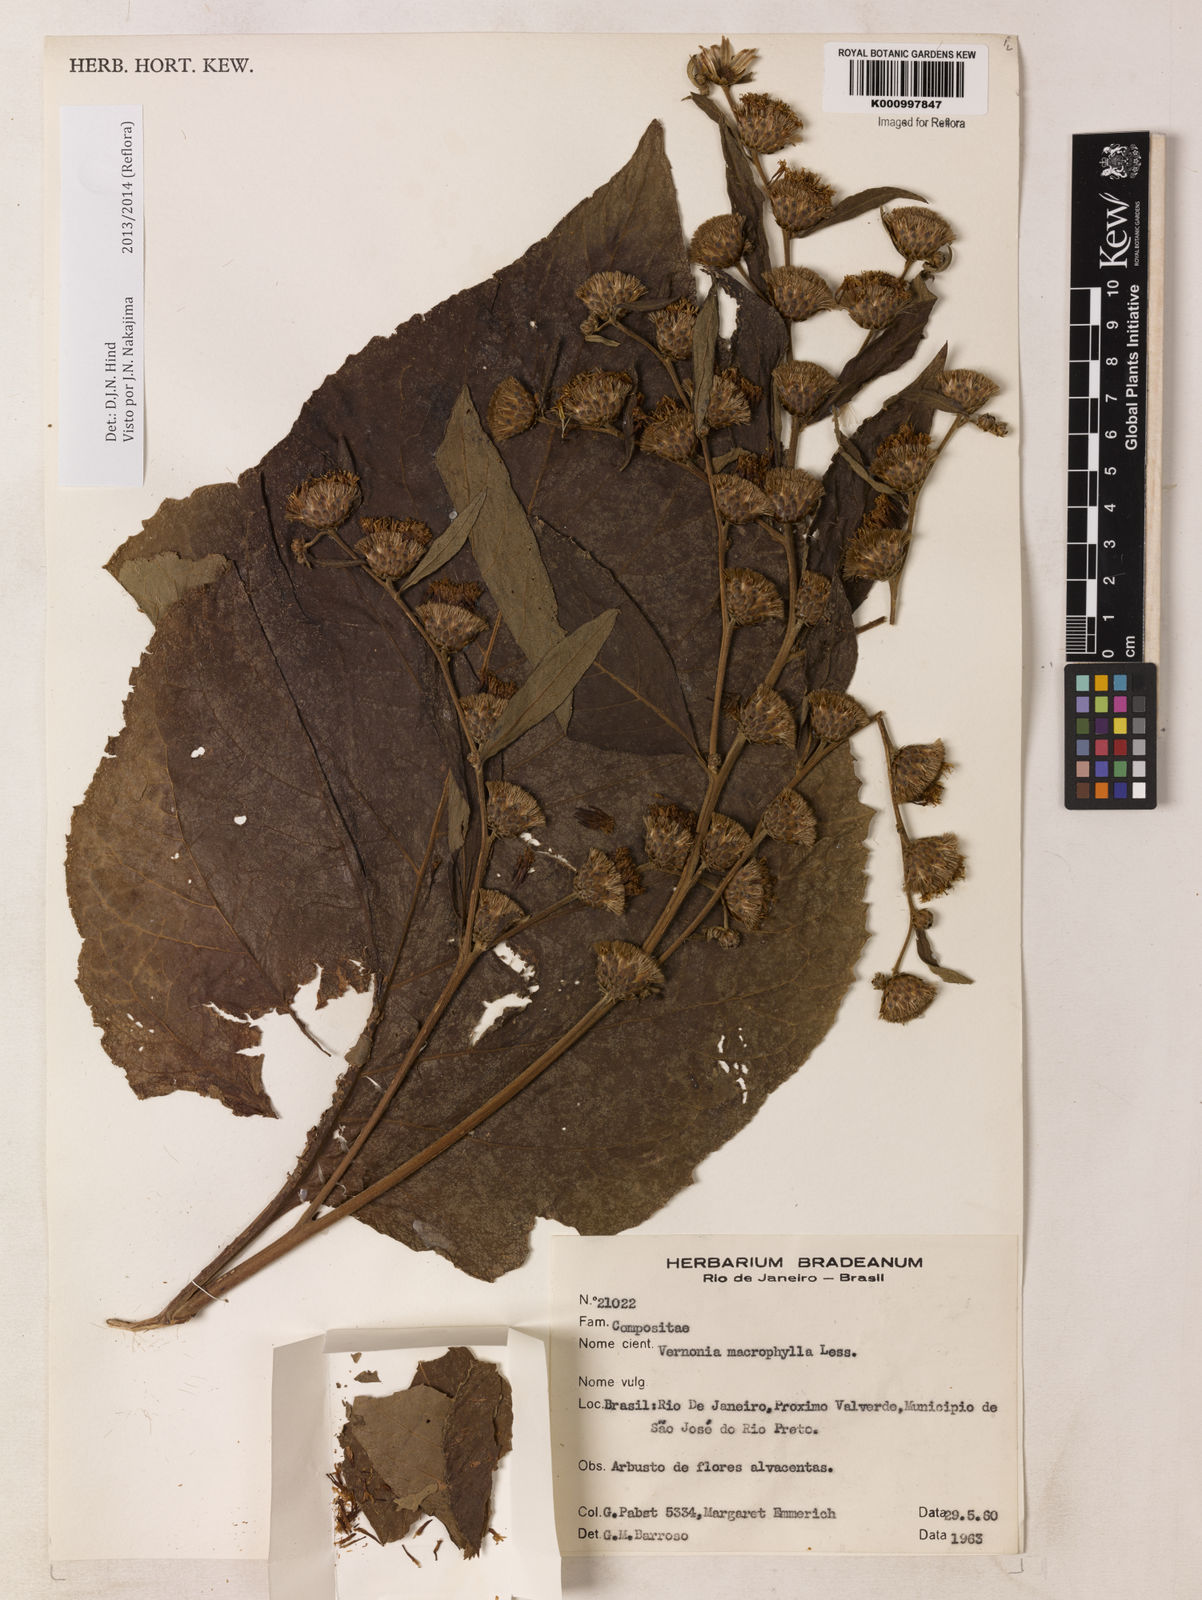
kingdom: Plantae
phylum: Tracheophyta
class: Magnoliopsida
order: Asterales
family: Asteraceae
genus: Lessingianthus
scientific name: Lessingianthus macrophyllus
